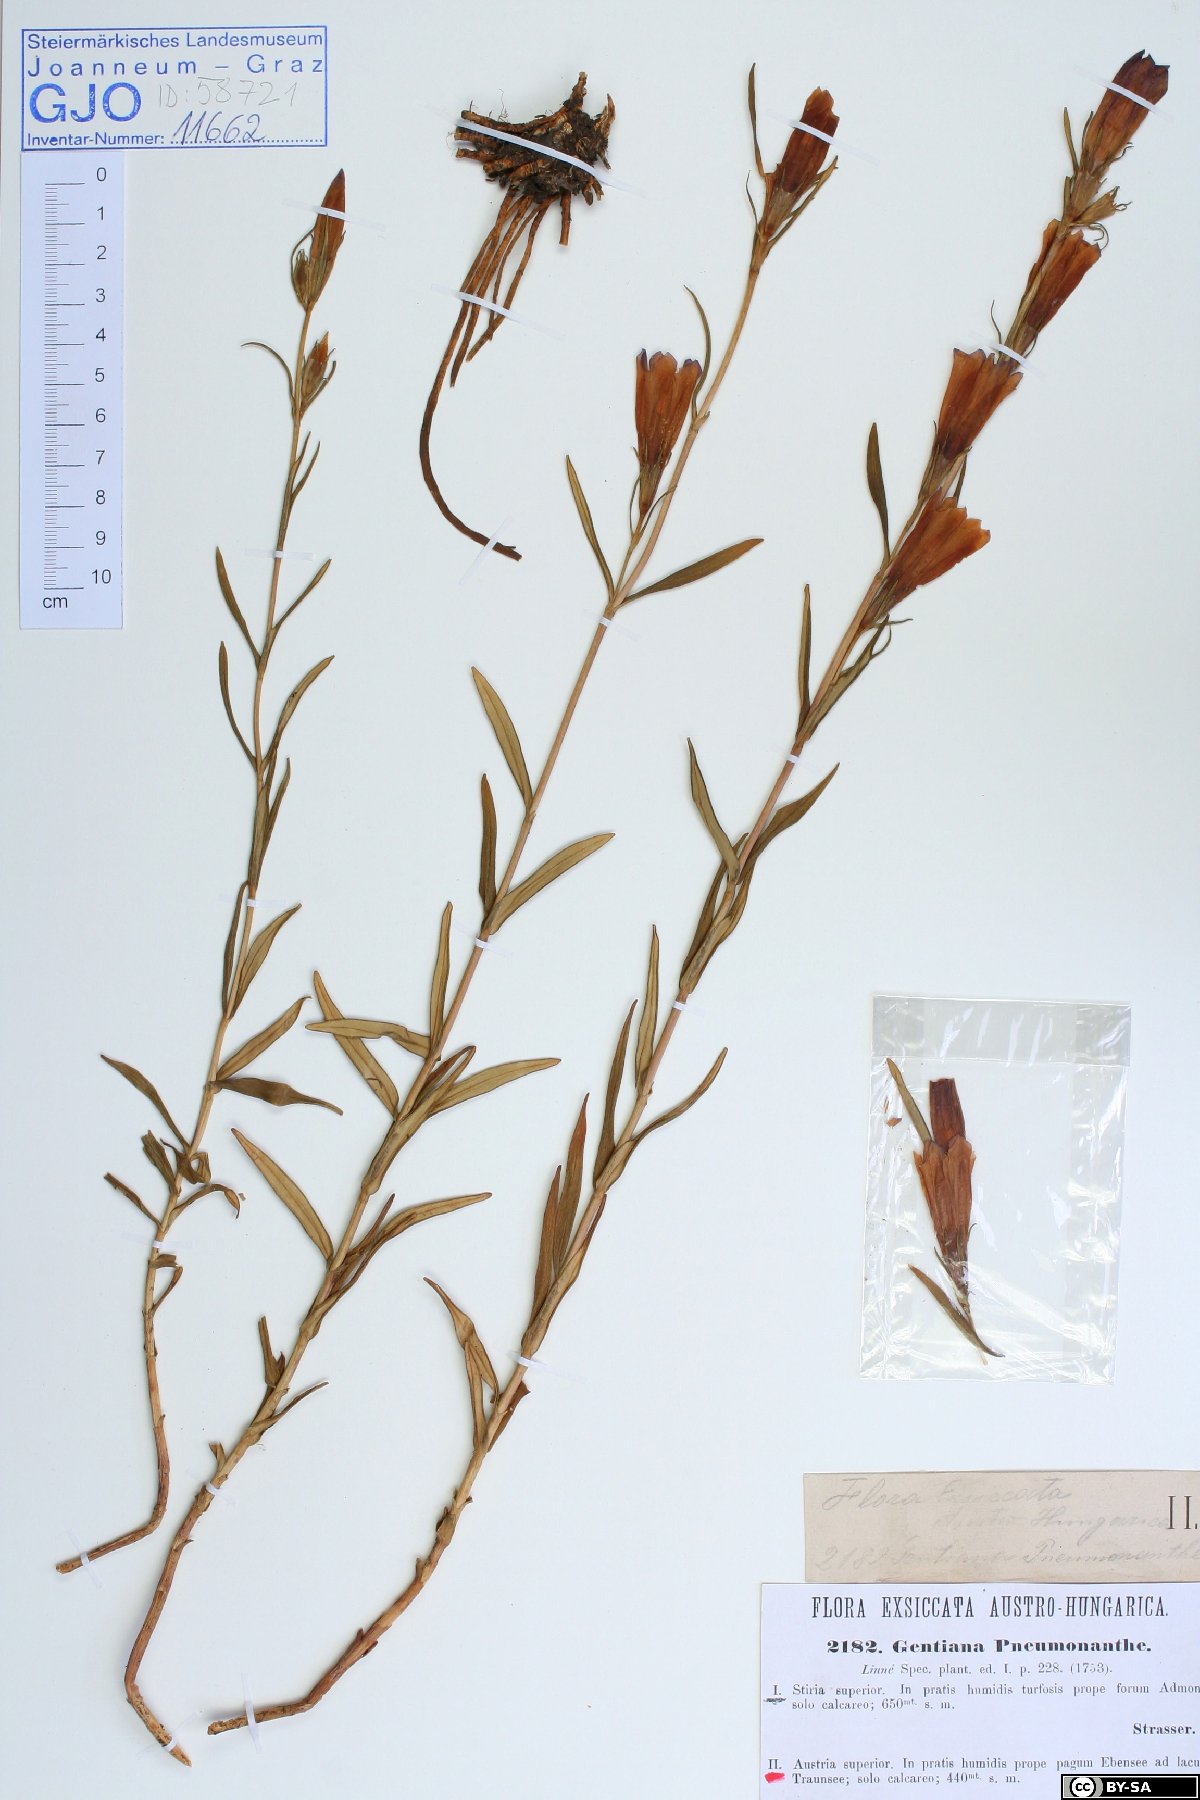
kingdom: Plantae
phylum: Tracheophyta
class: Magnoliopsida
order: Gentianales
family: Gentianaceae
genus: Gentiana
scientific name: Gentiana pneumonanthe
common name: Marsh gentian
